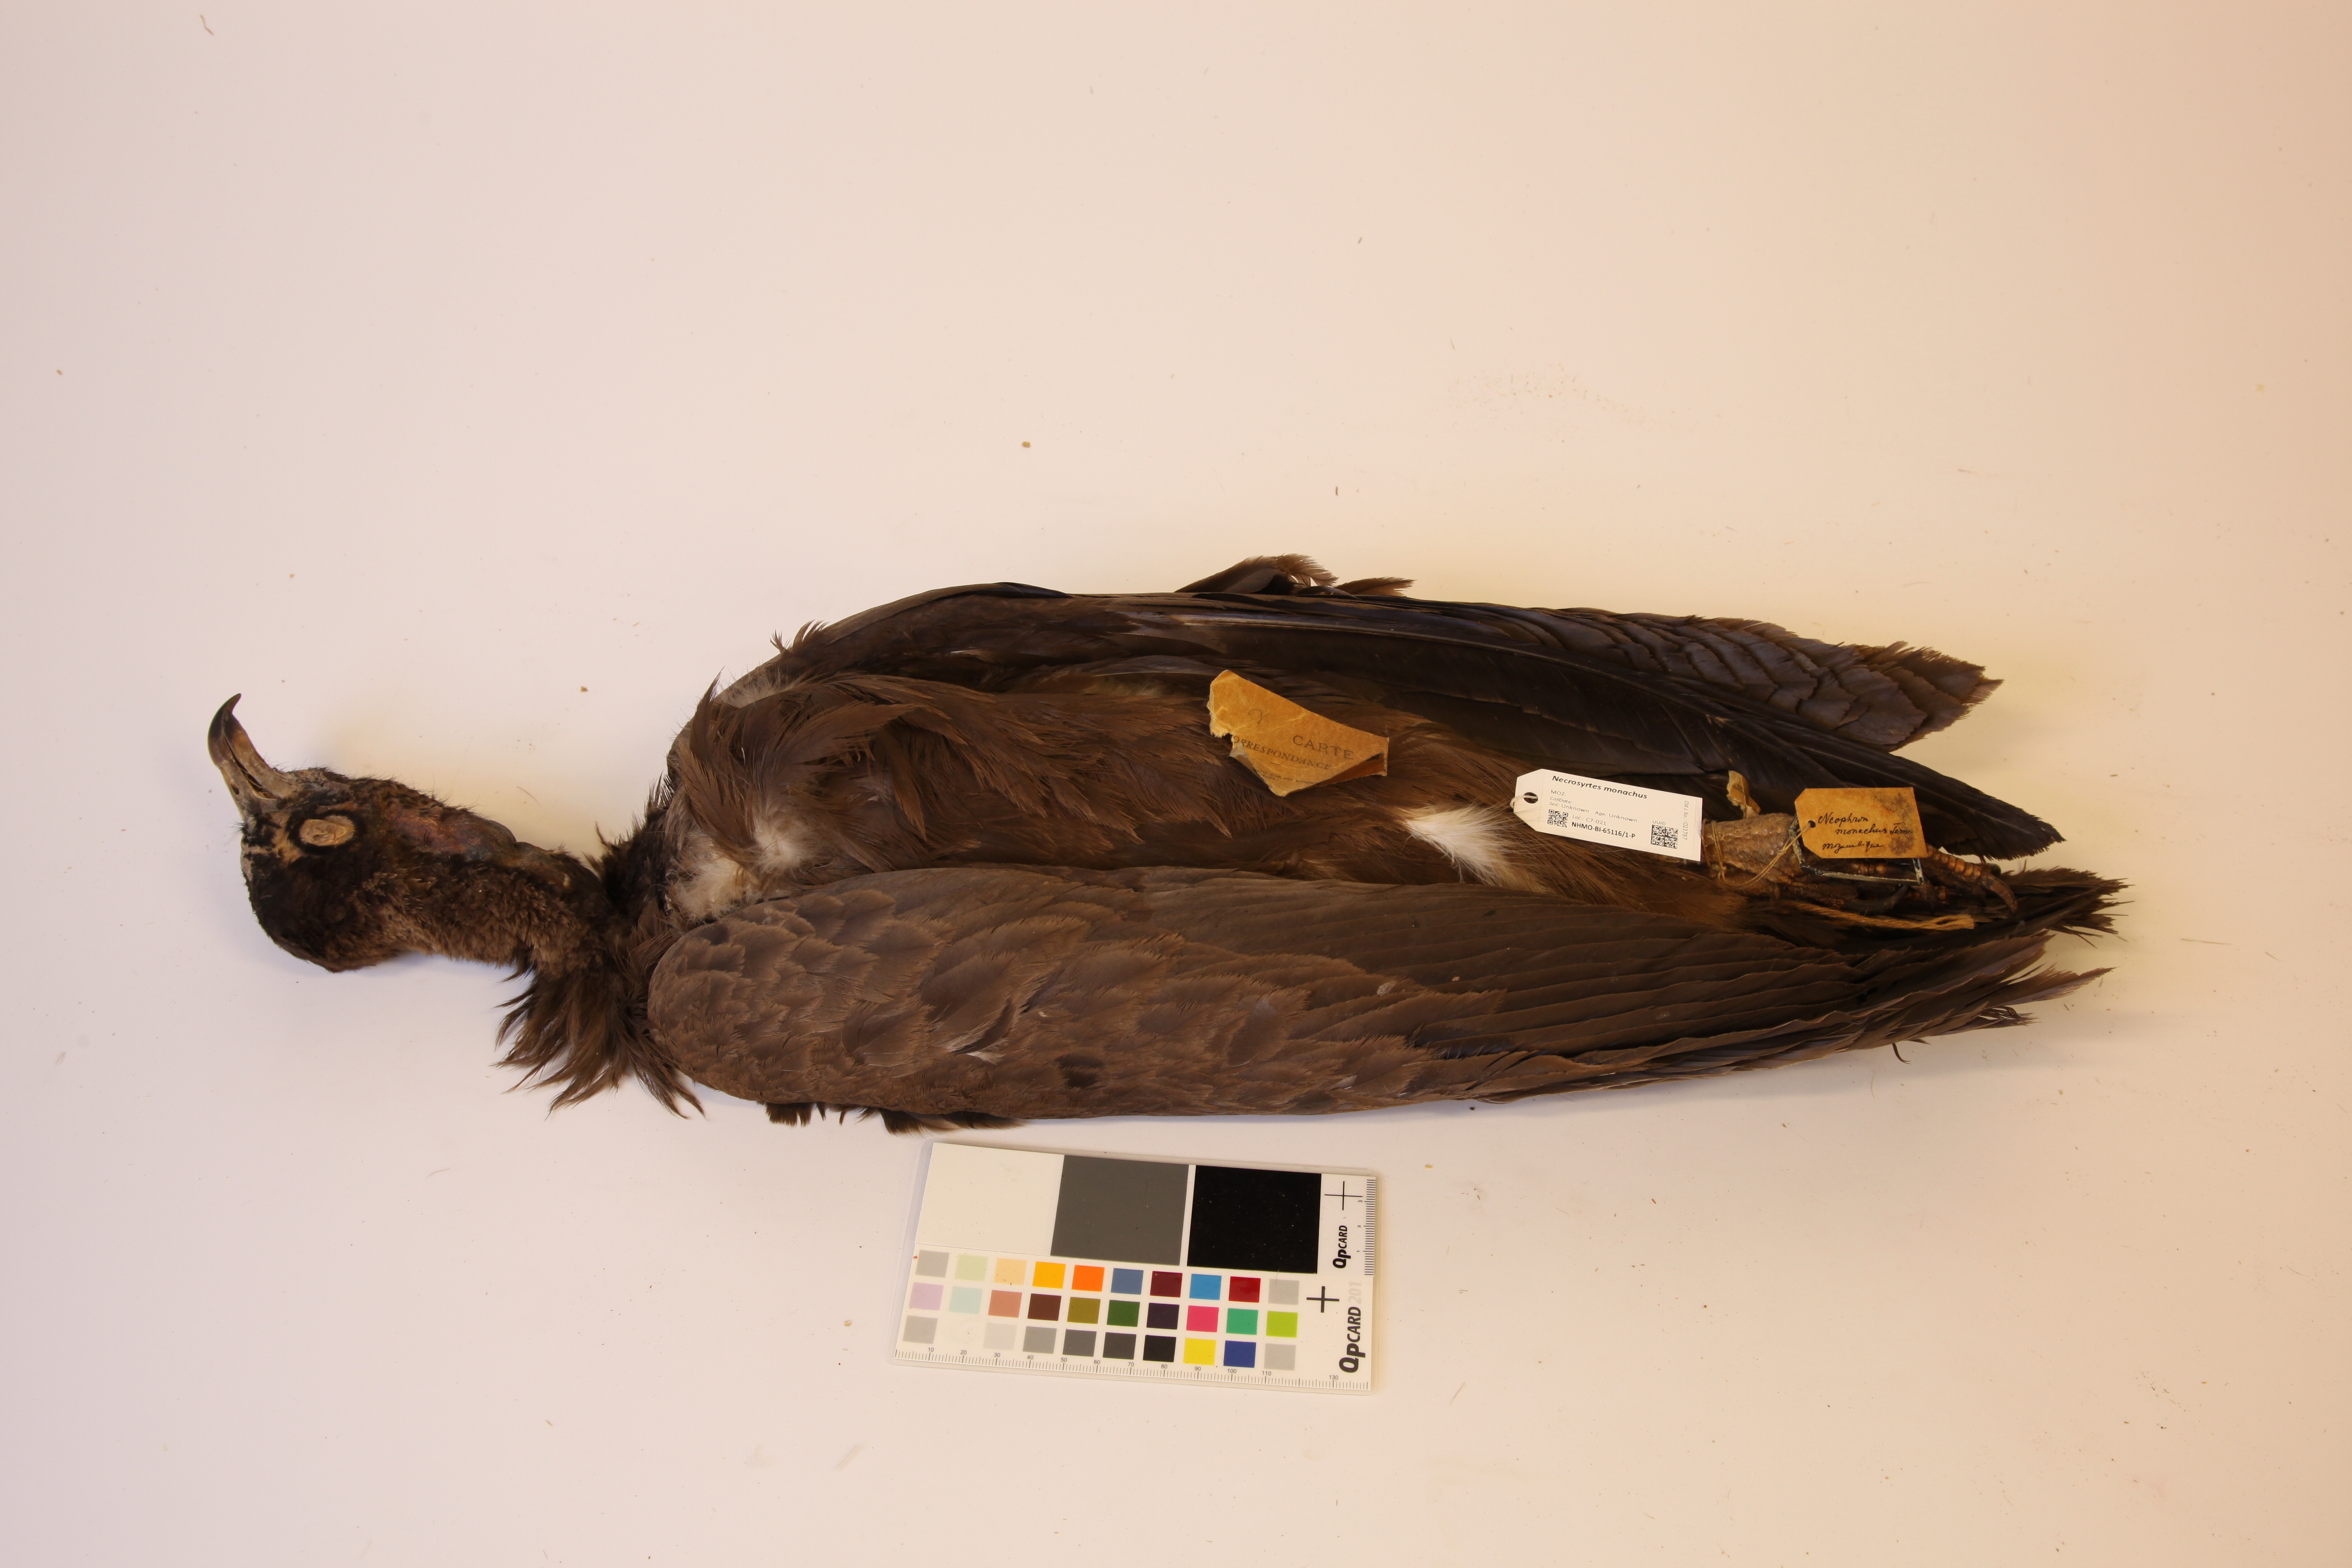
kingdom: Animalia
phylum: Chordata
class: Aves
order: Accipitriformes
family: Accipitridae
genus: Necrosyrtes
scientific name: Necrosyrtes monachus
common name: Hooded vulture
